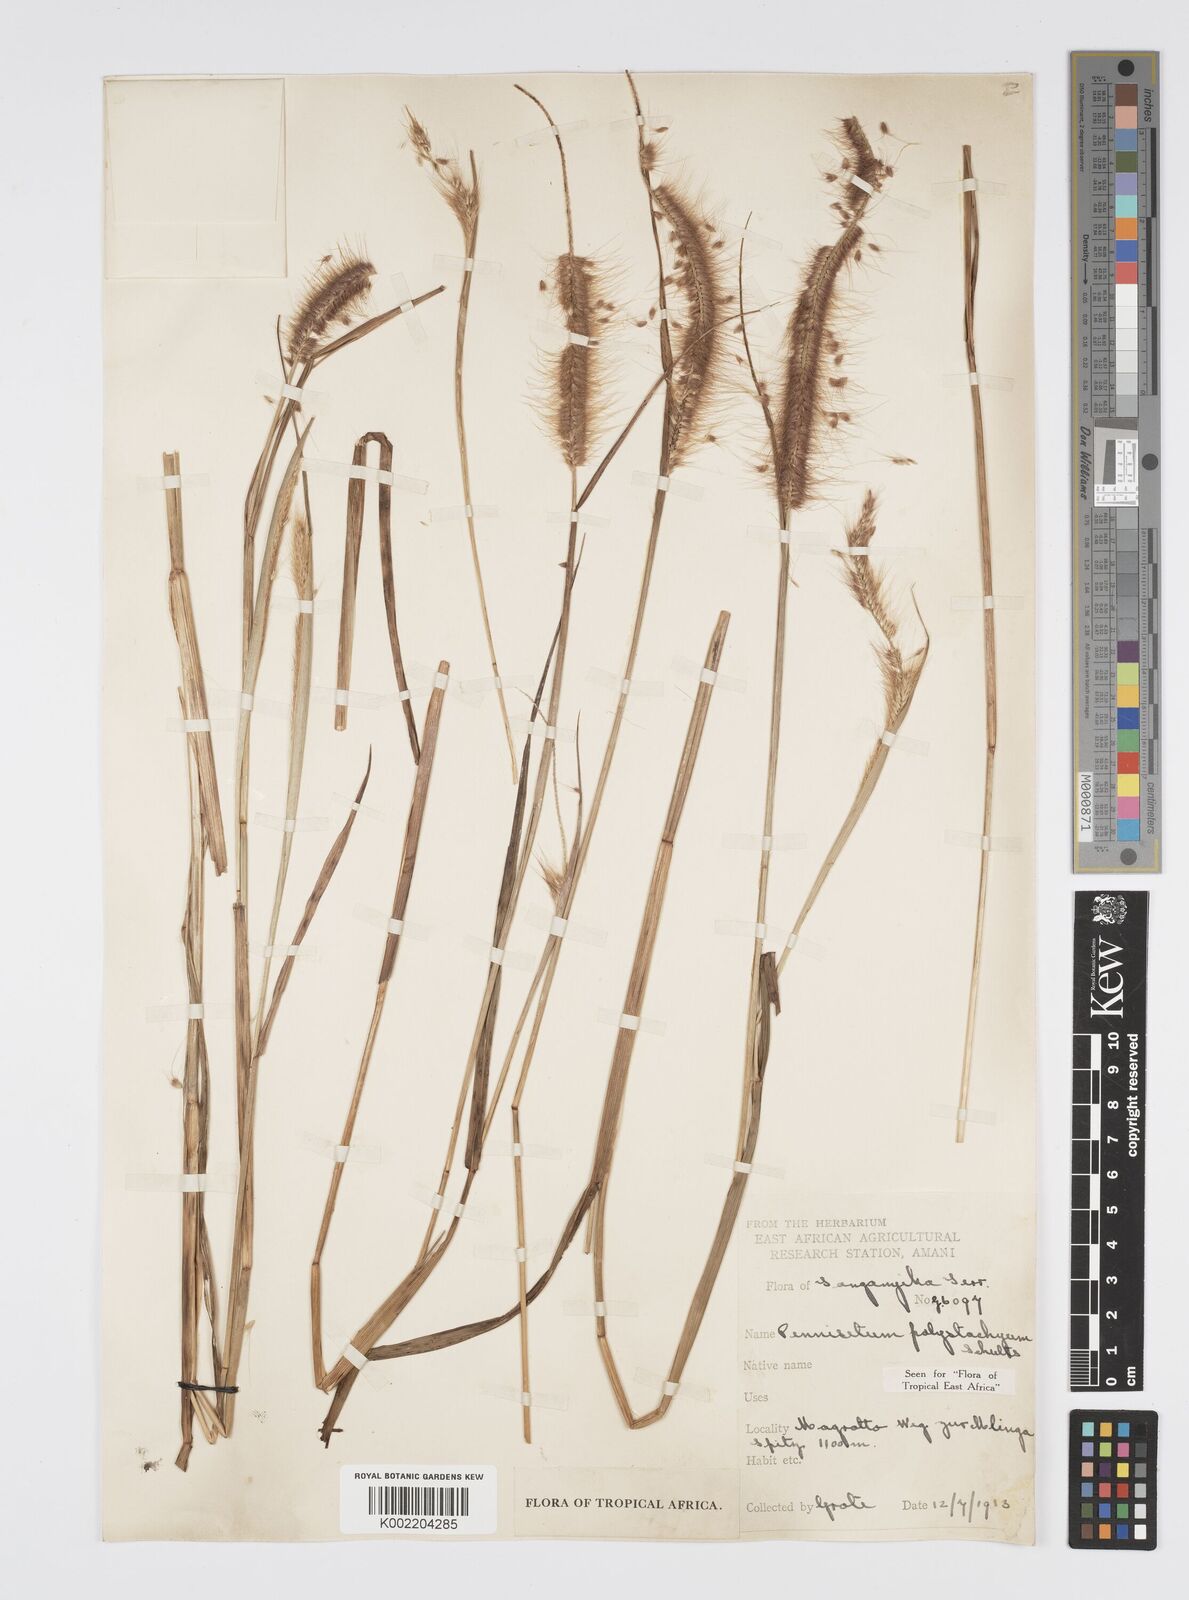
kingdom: Plantae
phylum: Tracheophyta
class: Liliopsida
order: Poales
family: Poaceae
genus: Setaria
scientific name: Setaria parviflora
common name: Knotroot bristle-grass
